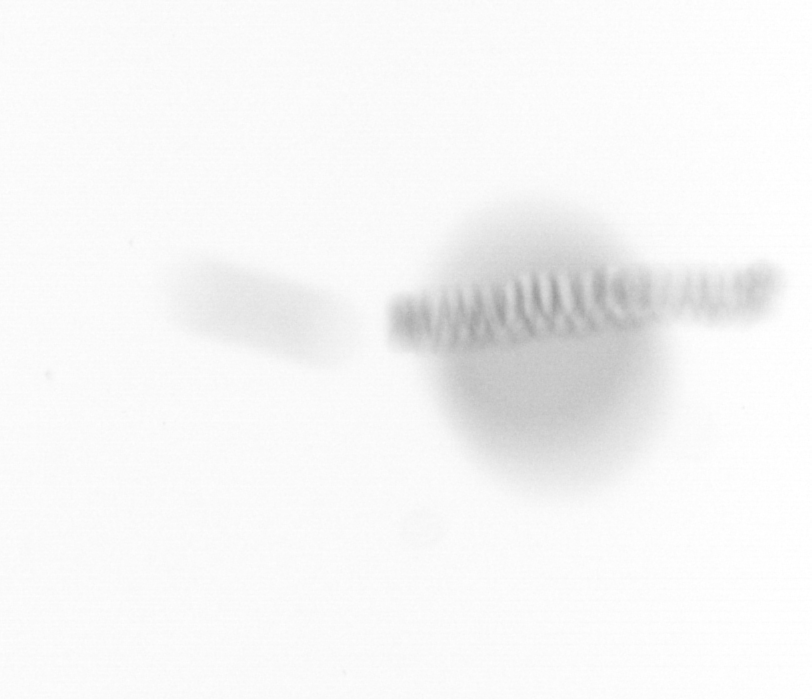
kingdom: Chromista
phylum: Ochrophyta
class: Bacillariophyceae
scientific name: Bacillariophyceae
